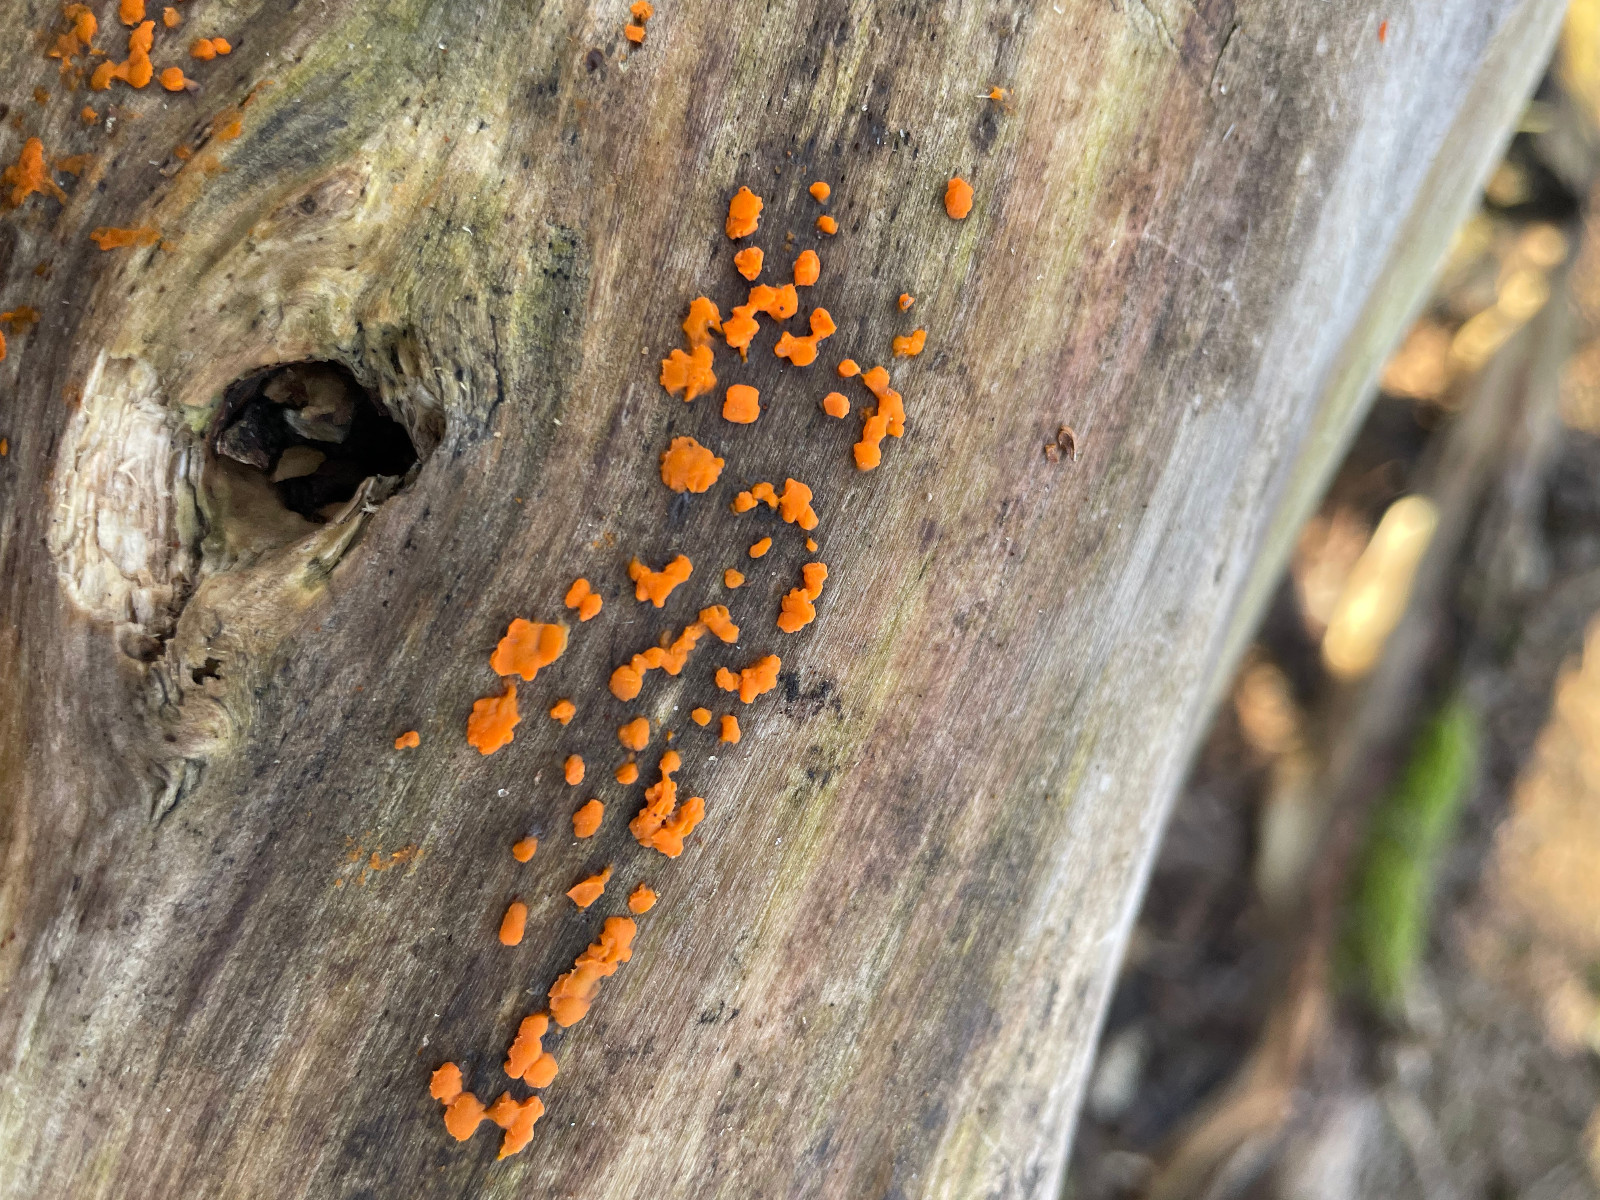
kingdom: Fungi
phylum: Basidiomycota
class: Dacrymycetes
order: Dacrymycetales
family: Dacrymycetaceae
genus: Dacrymyces
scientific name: Dacrymyces stillatus
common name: almindelig tåresvamp
